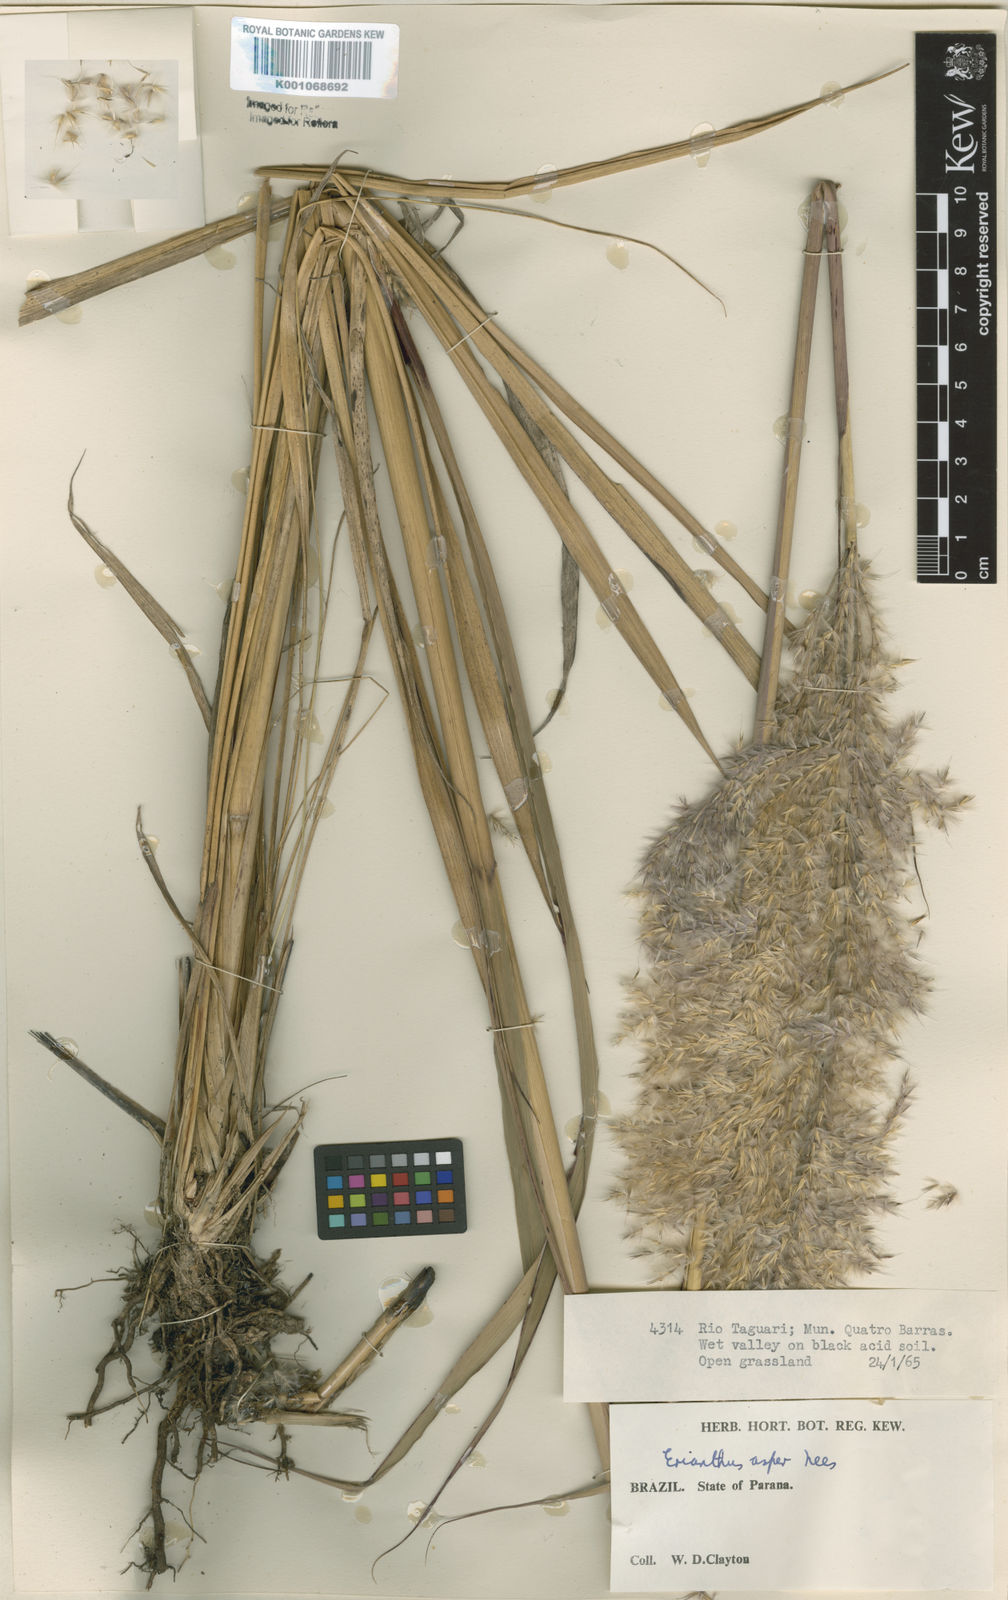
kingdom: Plantae
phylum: Tracheophyta
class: Liliopsida
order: Poales
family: Poaceae
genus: Erianthus
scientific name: Erianthus asper
